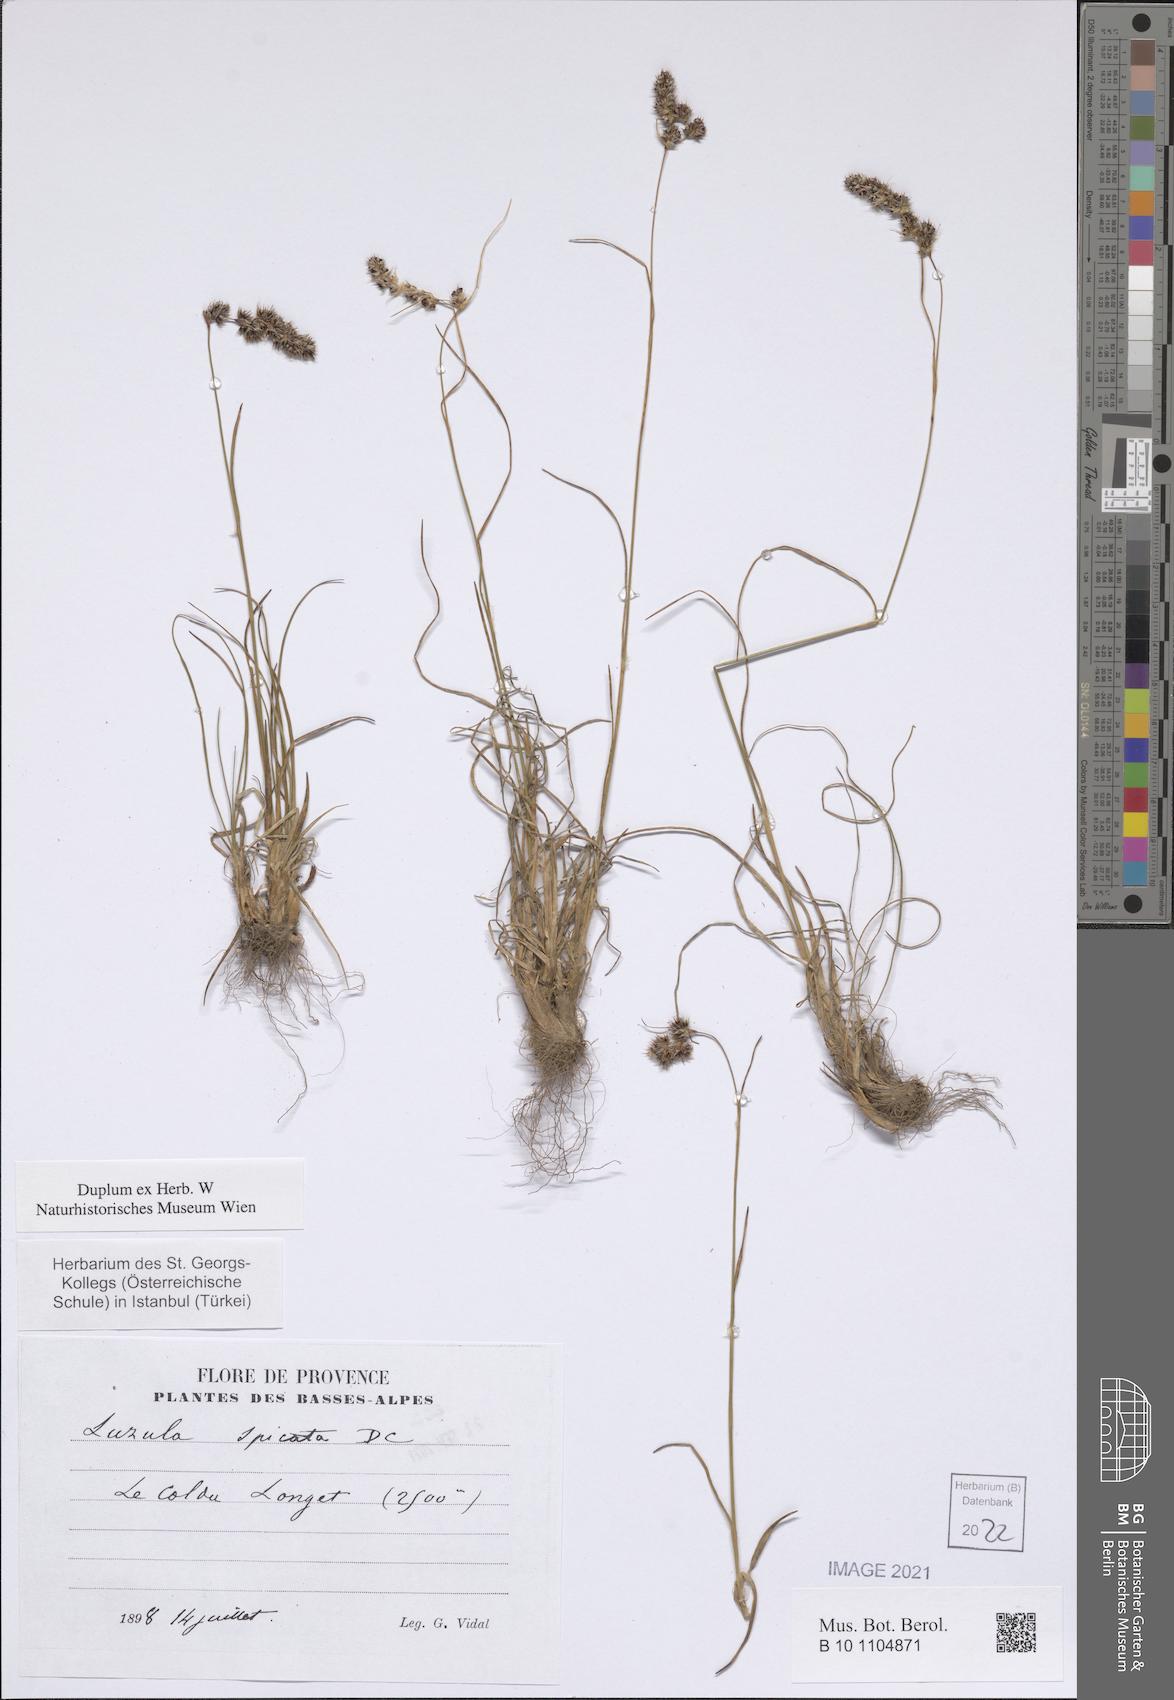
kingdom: Plantae
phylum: Tracheophyta
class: Liliopsida
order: Poales
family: Juncaceae
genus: Luzula
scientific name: Luzula spicata
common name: Spiked wood-rush
